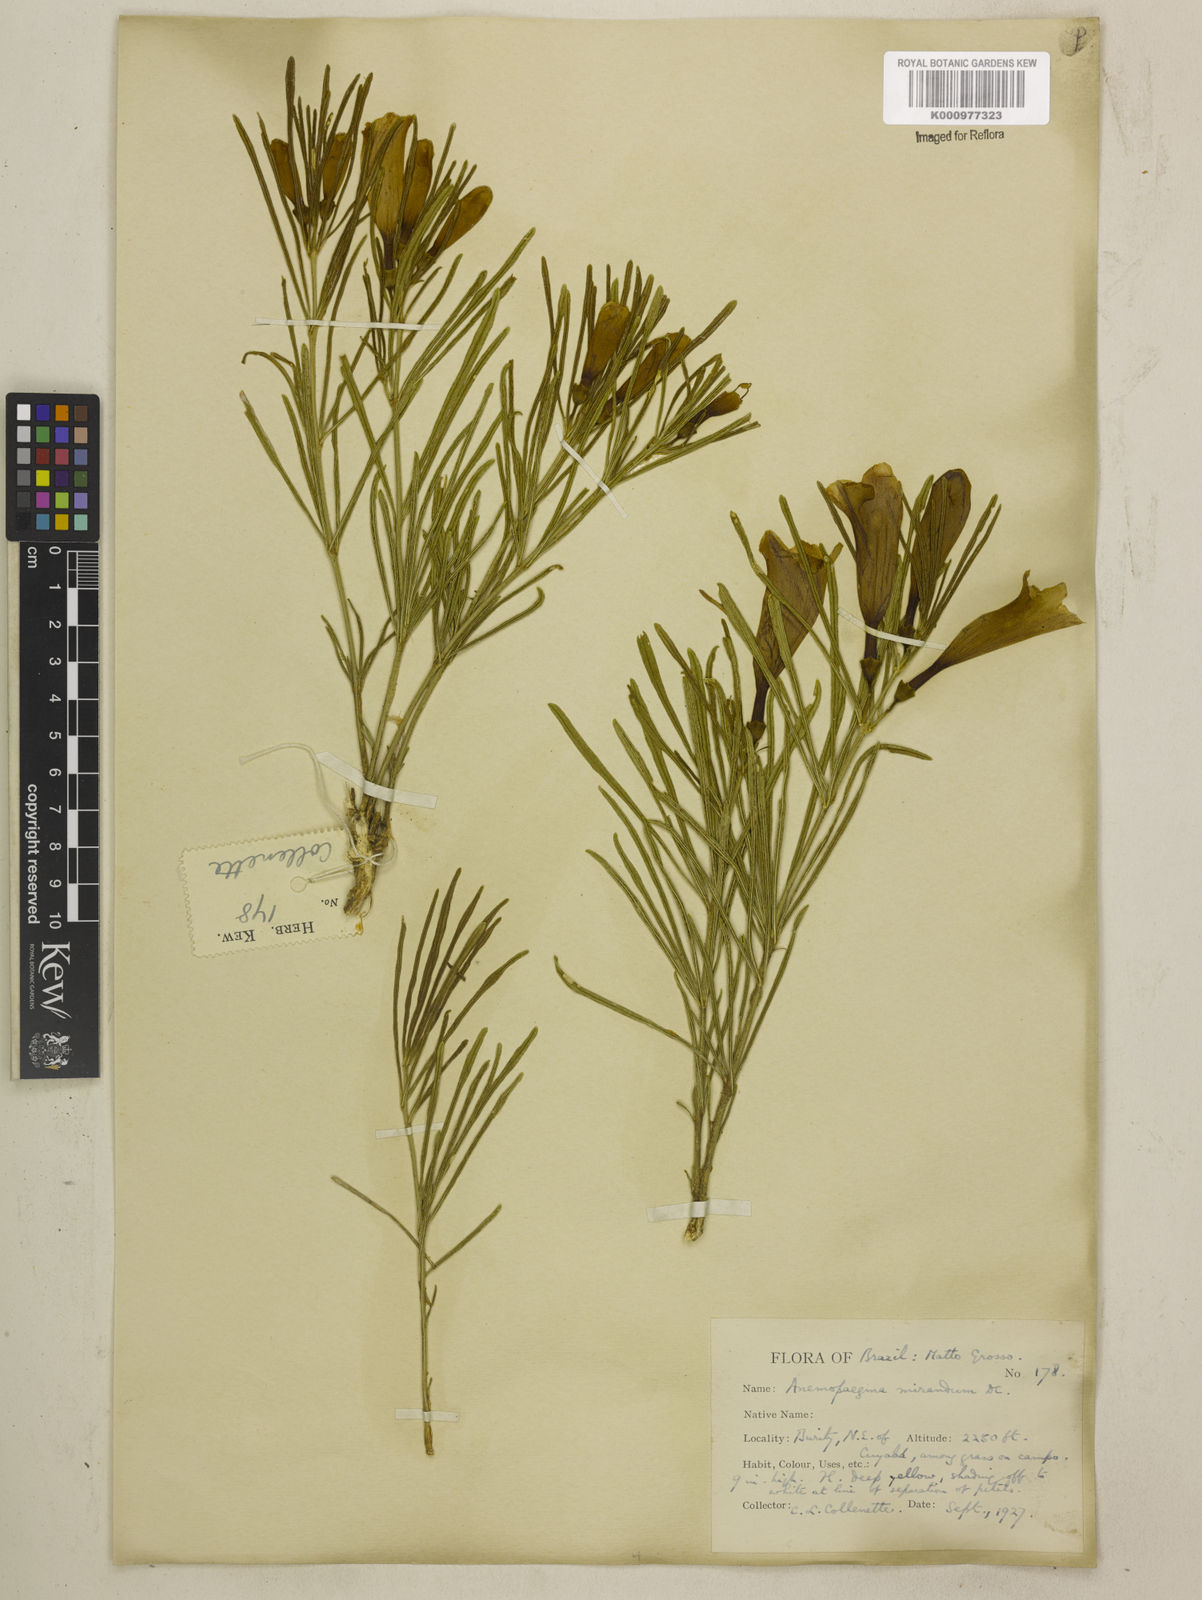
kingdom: Plantae
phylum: Tracheophyta
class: Magnoliopsida
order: Lamiales
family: Bignoniaceae
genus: Anemopaegma
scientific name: Anemopaegma arvense
